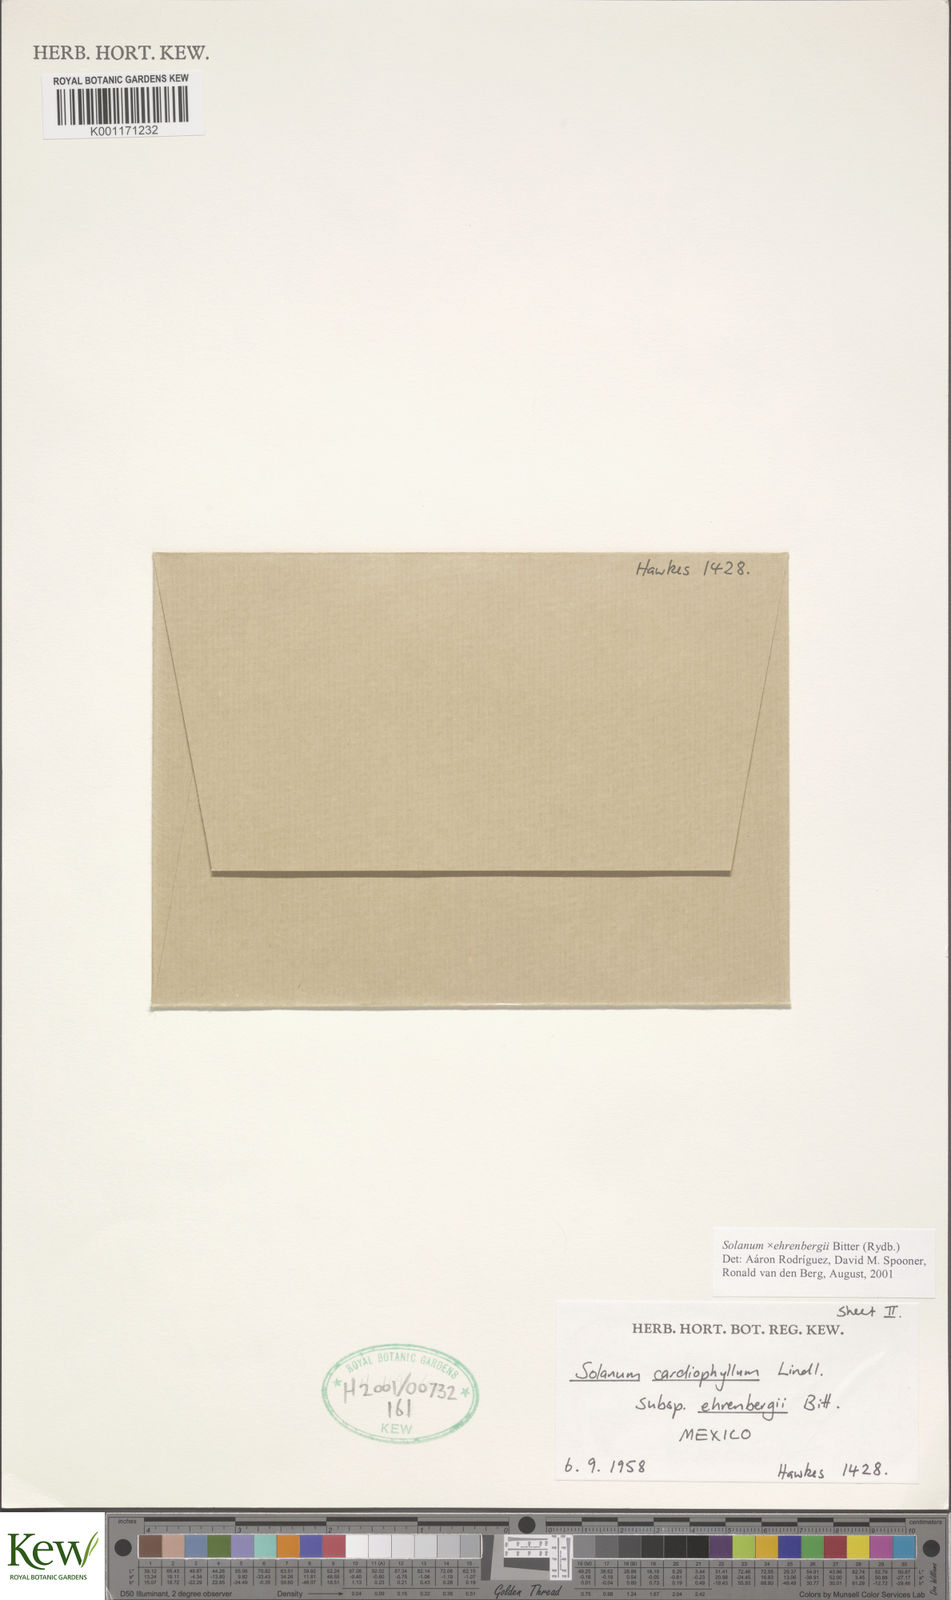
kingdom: Plantae
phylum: Tracheophyta
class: Magnoliopsida
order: Solanales
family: Solanaceae
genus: Solanum
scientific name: Solanum edinense
